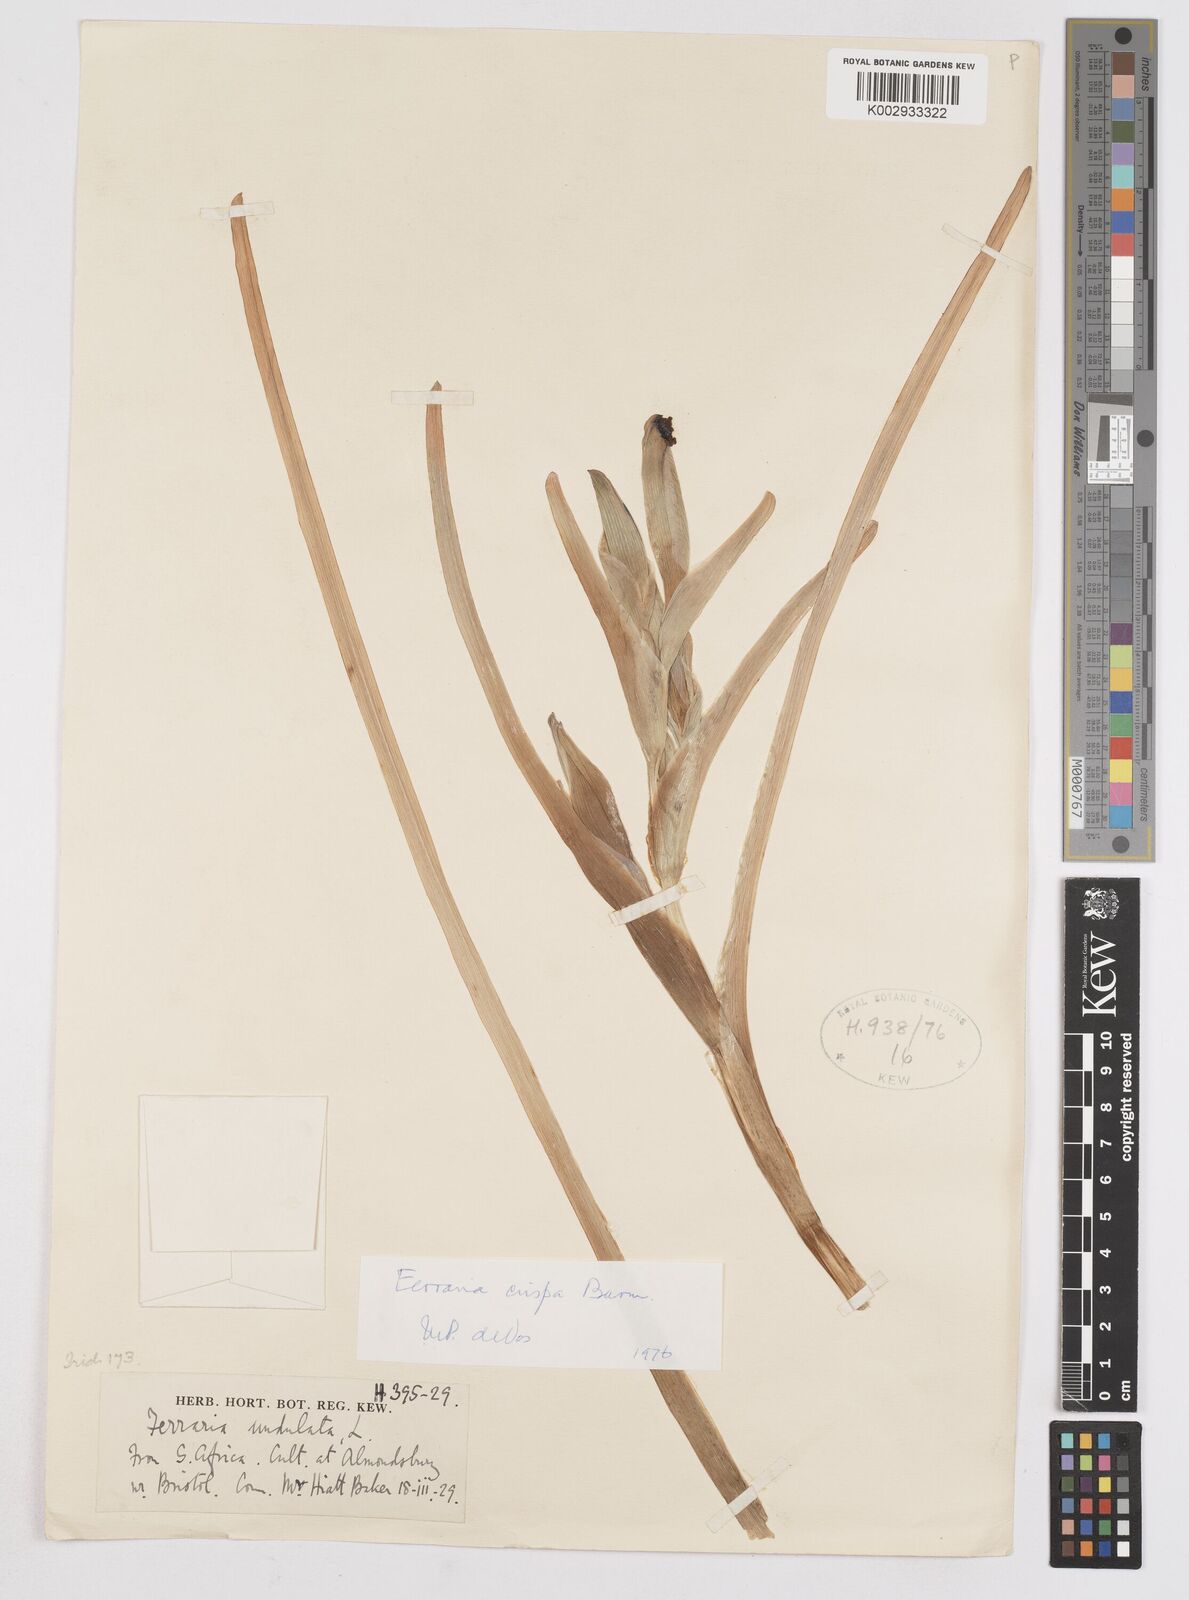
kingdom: Plantae
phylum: Tracheophyta
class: Liliopsida
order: Asparagales
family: Iridaceae
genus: Ferraria
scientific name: Ferraria crispa
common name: Black-flag
